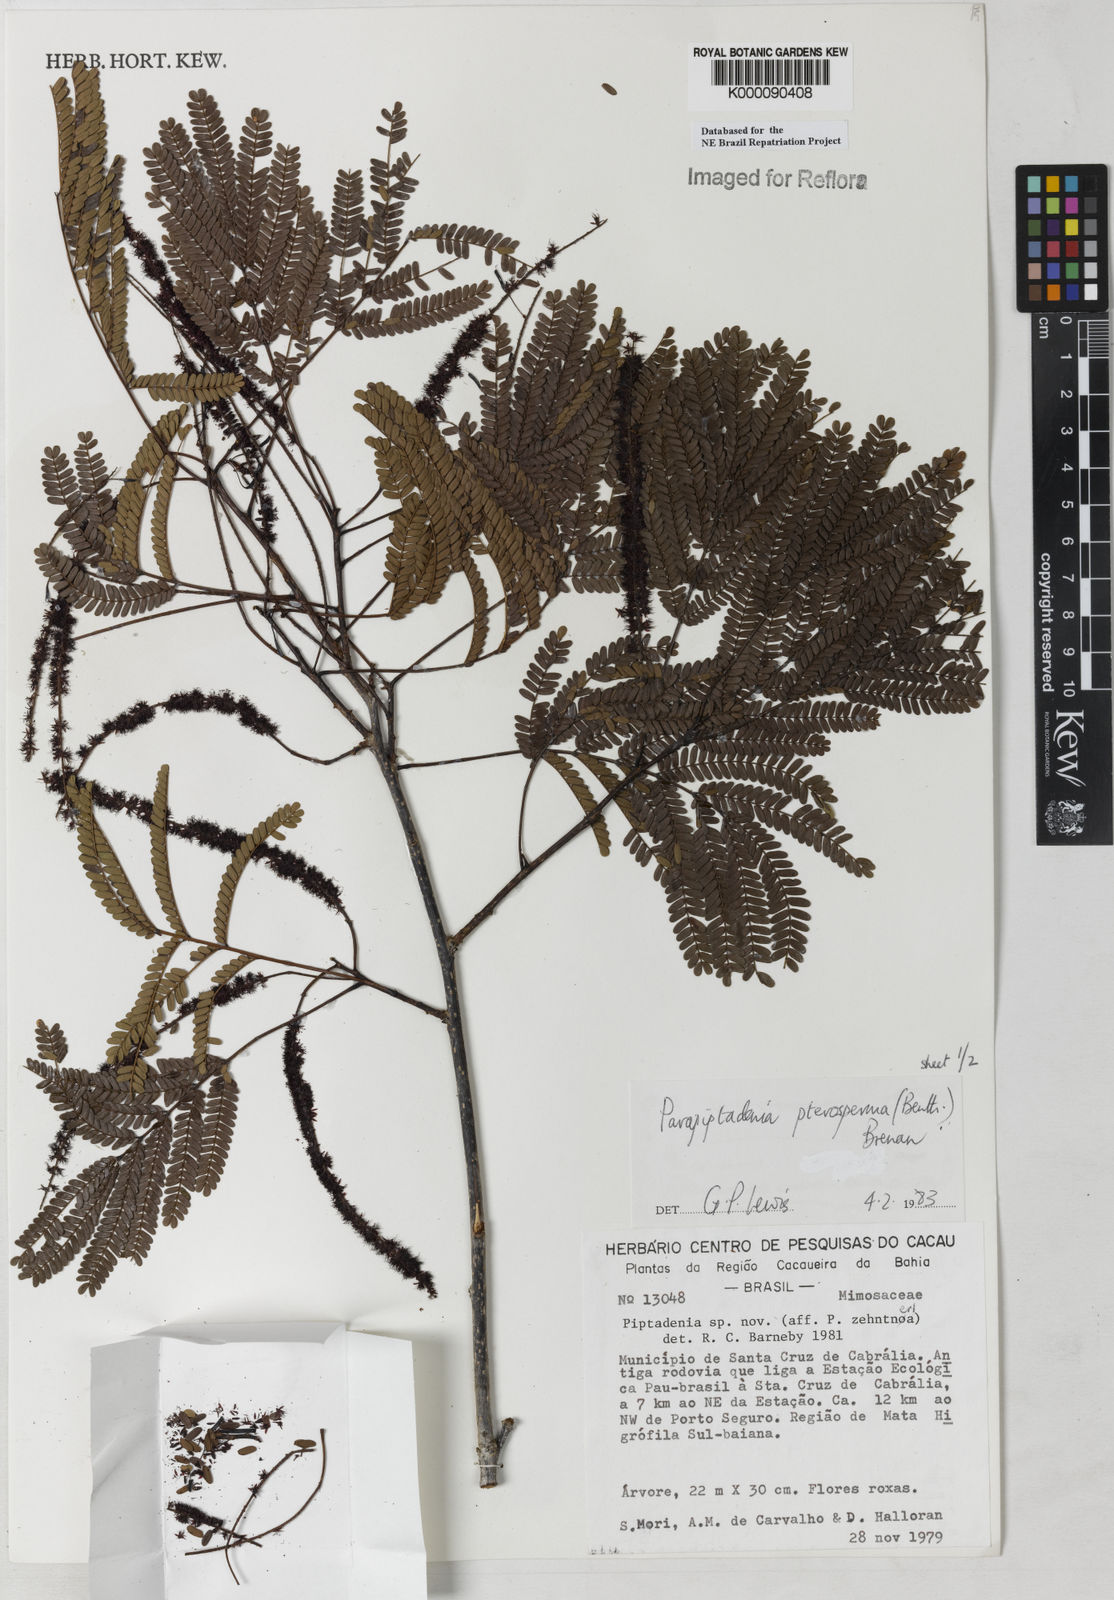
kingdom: Plantae
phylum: Tracheophyta
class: Magnoliopsida
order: Fabales
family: Fabaceae
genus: Parapiptadenia
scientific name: Parapiptadenia pterosperma
